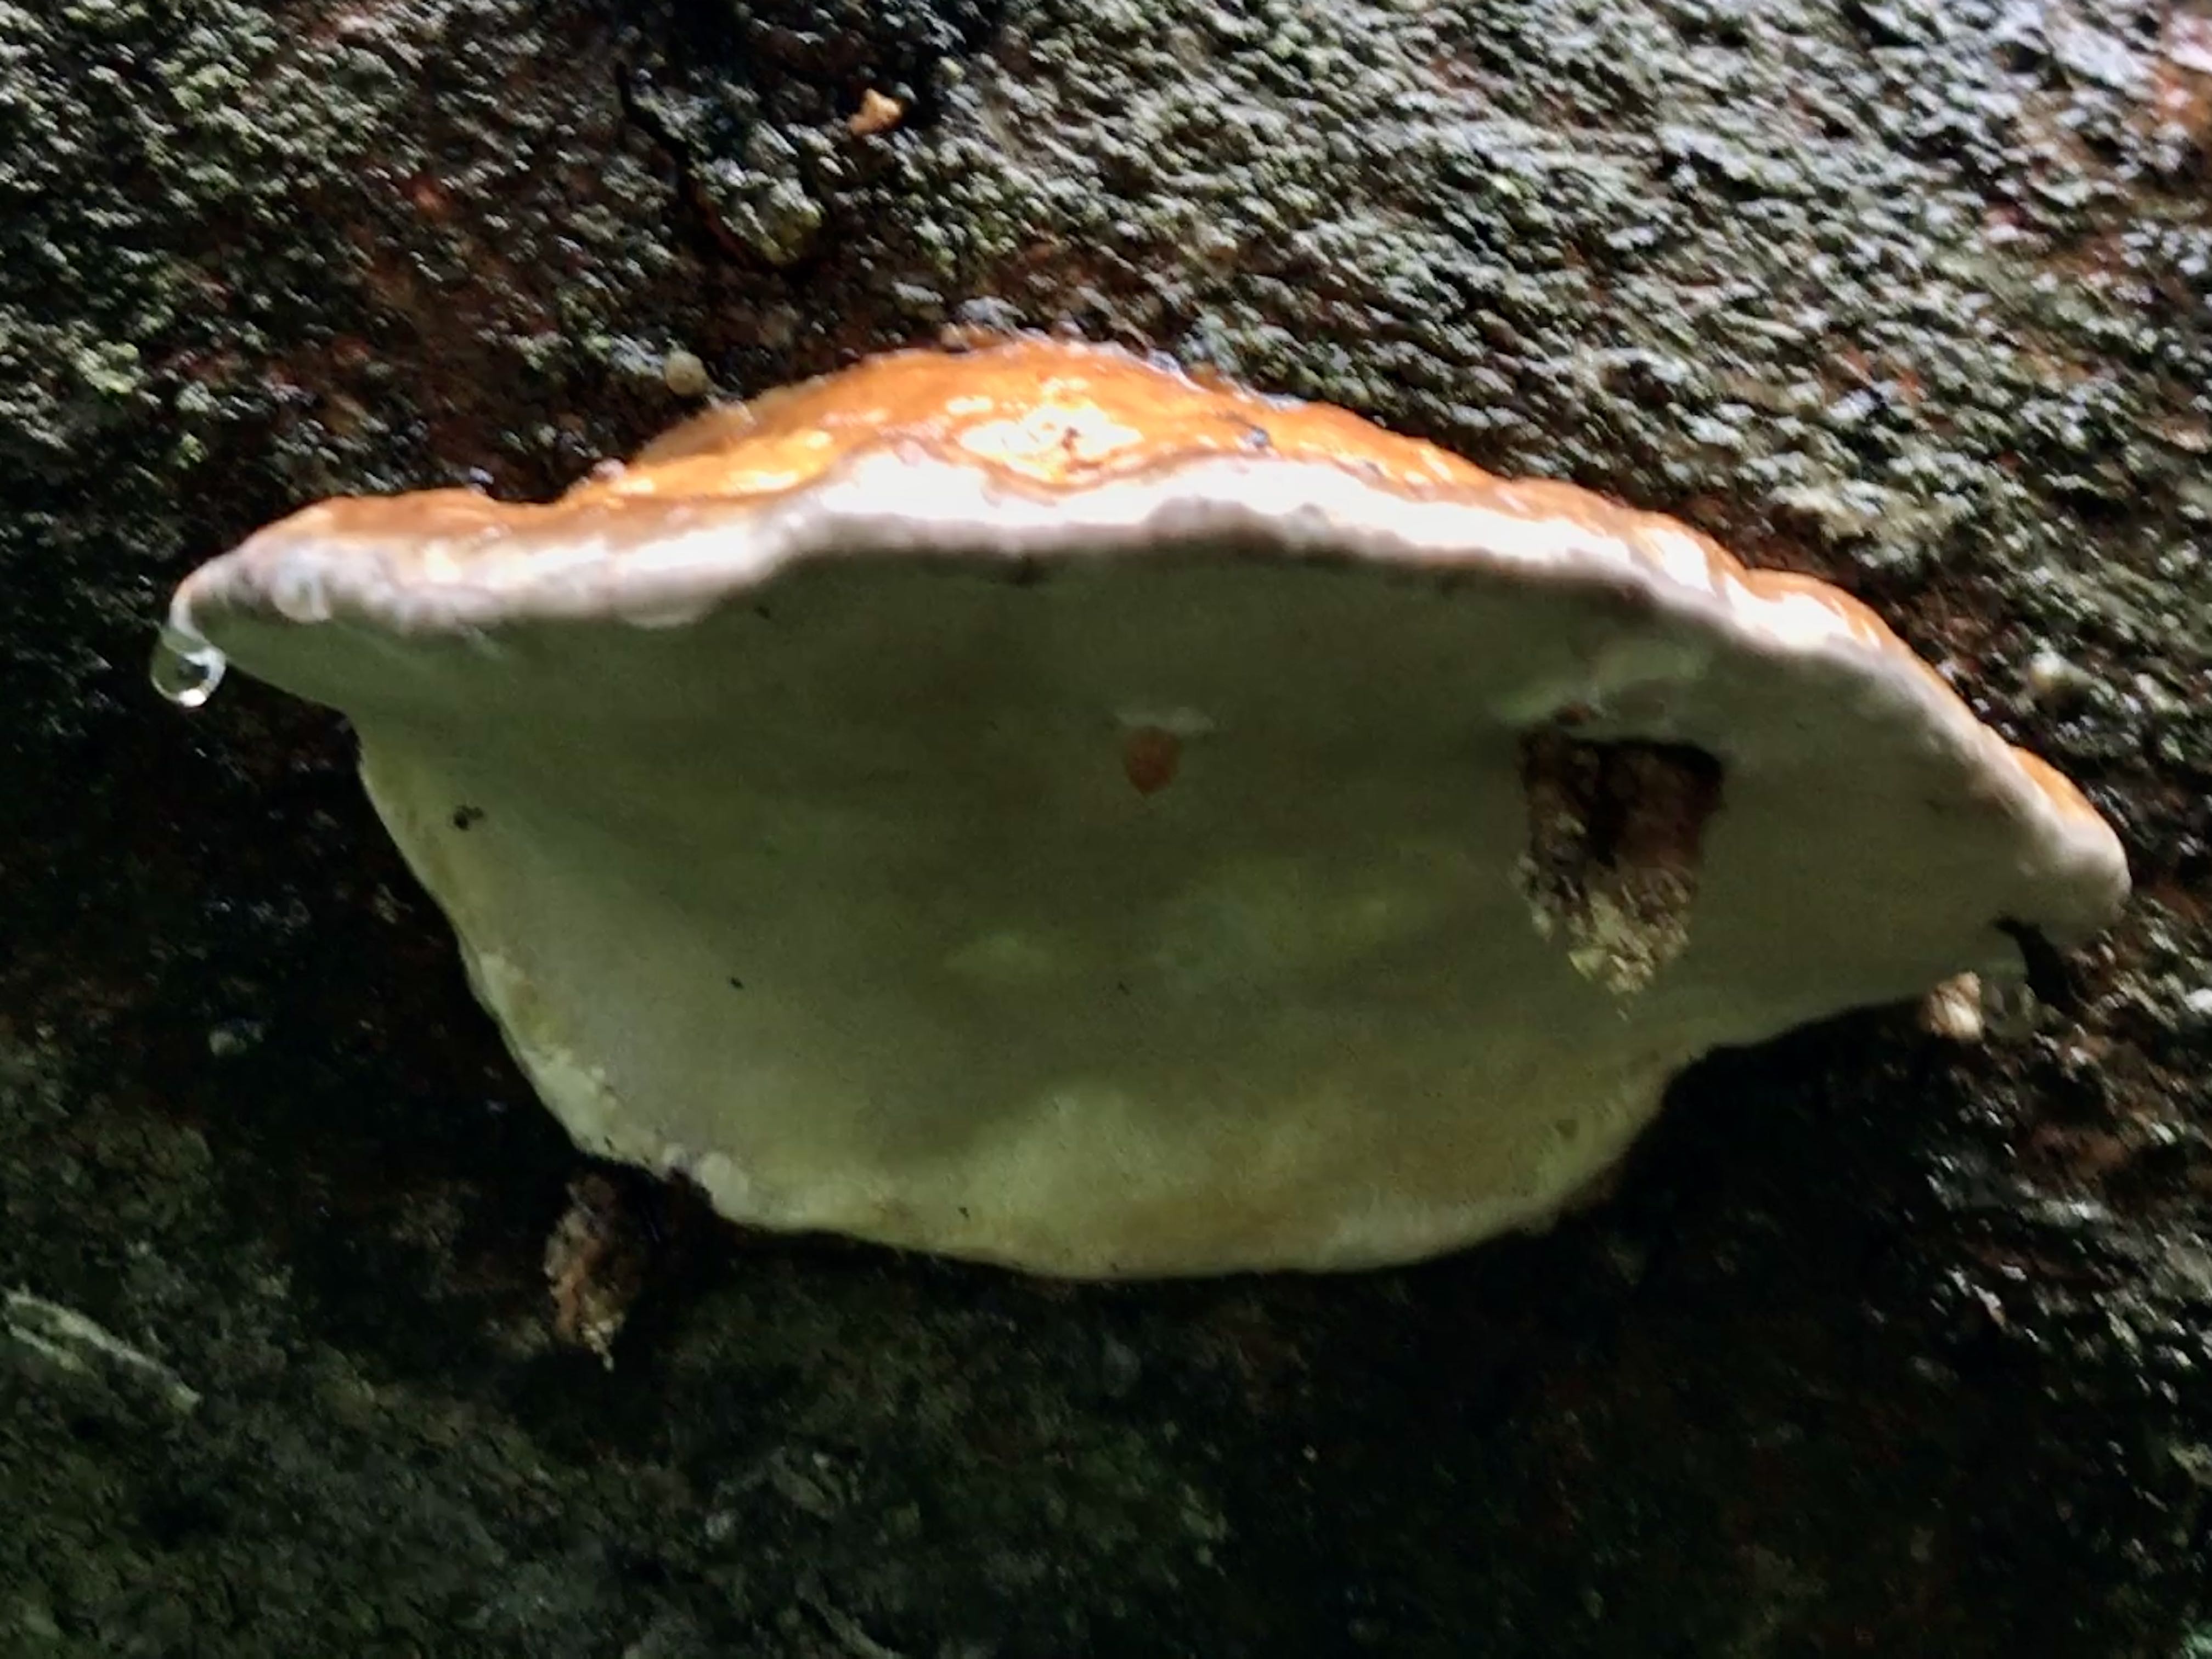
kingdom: Fungi
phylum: Basidiomycota
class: Agaricomycetes
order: Polyporales
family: Fomitopsidaceae
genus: Fomitopsis
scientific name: Fomitopsis pinicola
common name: randbæltet hovporesvamp
